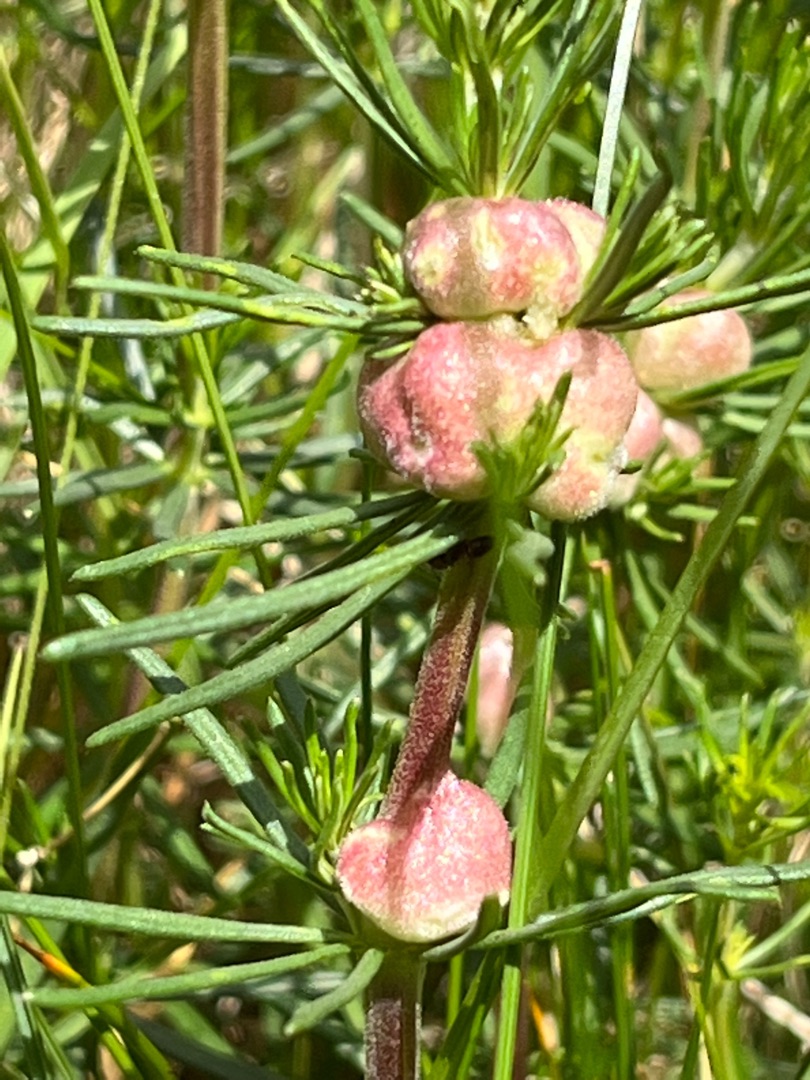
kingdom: Animalia
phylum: Arthropoda
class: Insecta
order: Diptera
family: Cecidomyiidae
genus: Geocrypta
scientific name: Geocrypta galii
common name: Snerrestængelgalmyg
